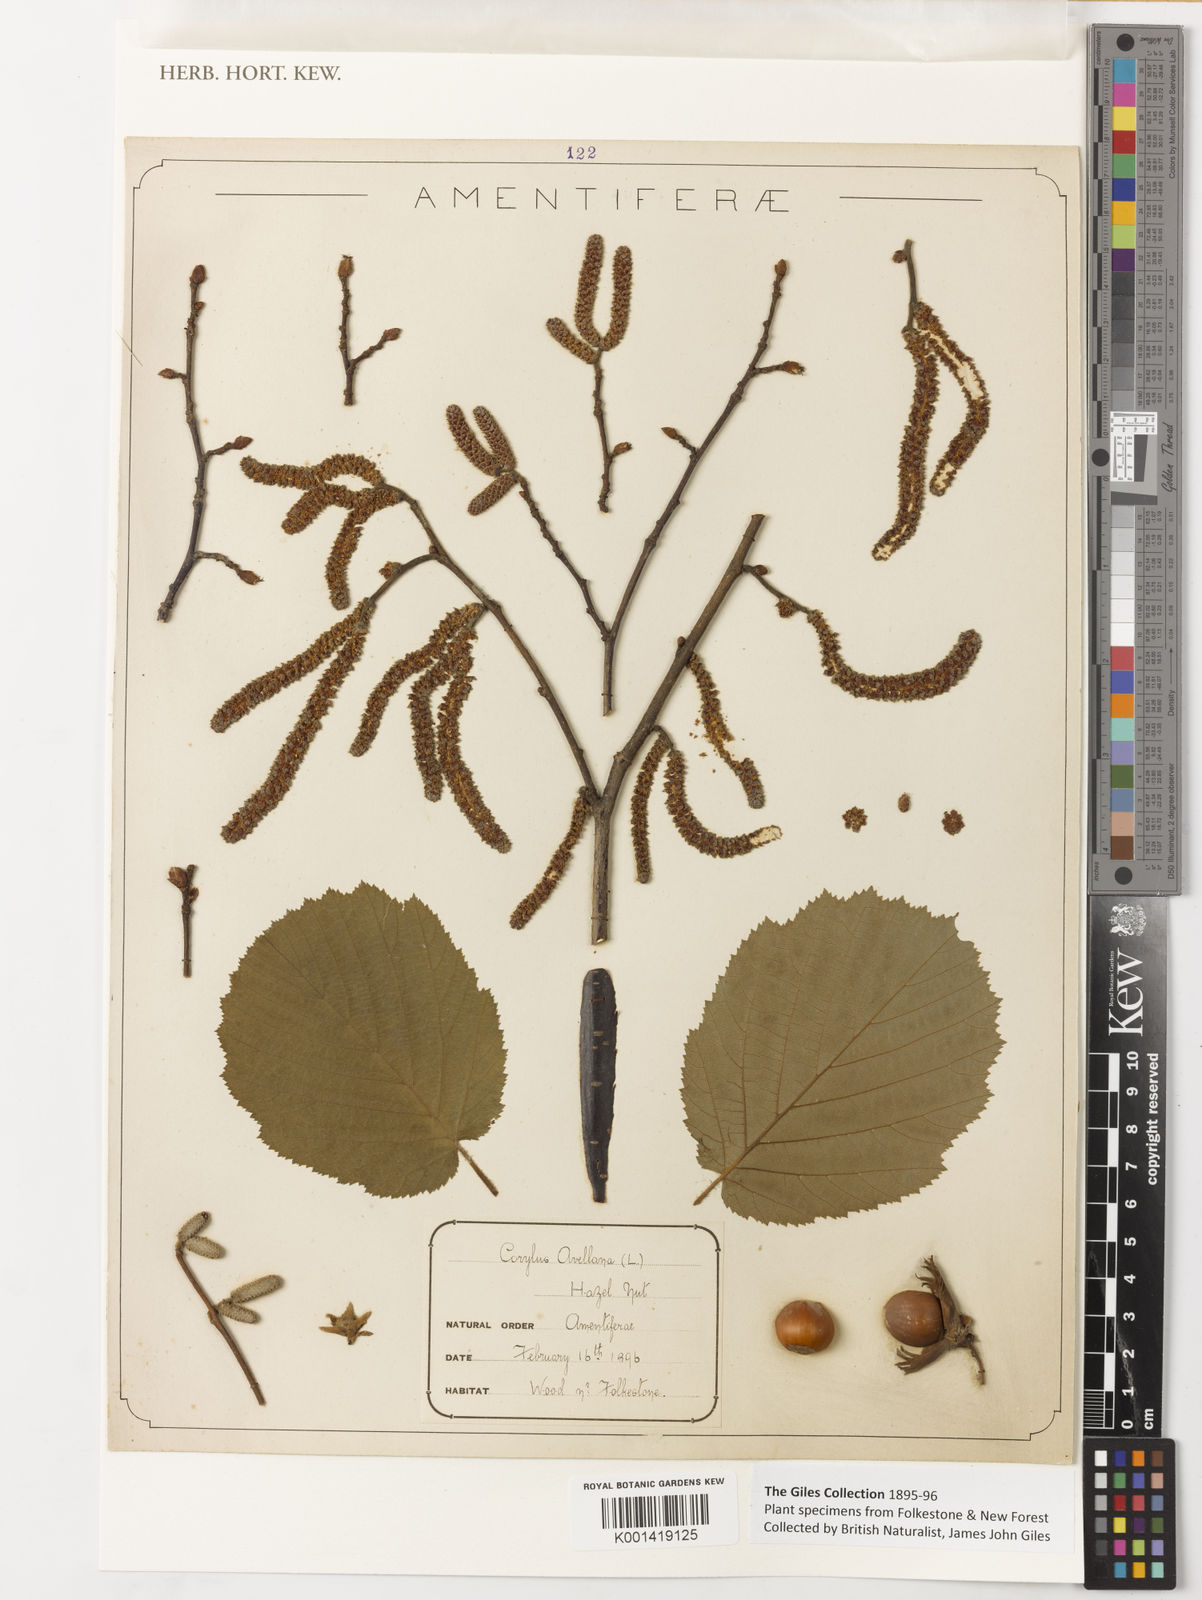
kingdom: Plantae
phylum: Tracheophyta
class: Magnoliopsida
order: Fagales
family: Betulaceae
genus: Corylus
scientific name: Corylus avellana
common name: European hazel
